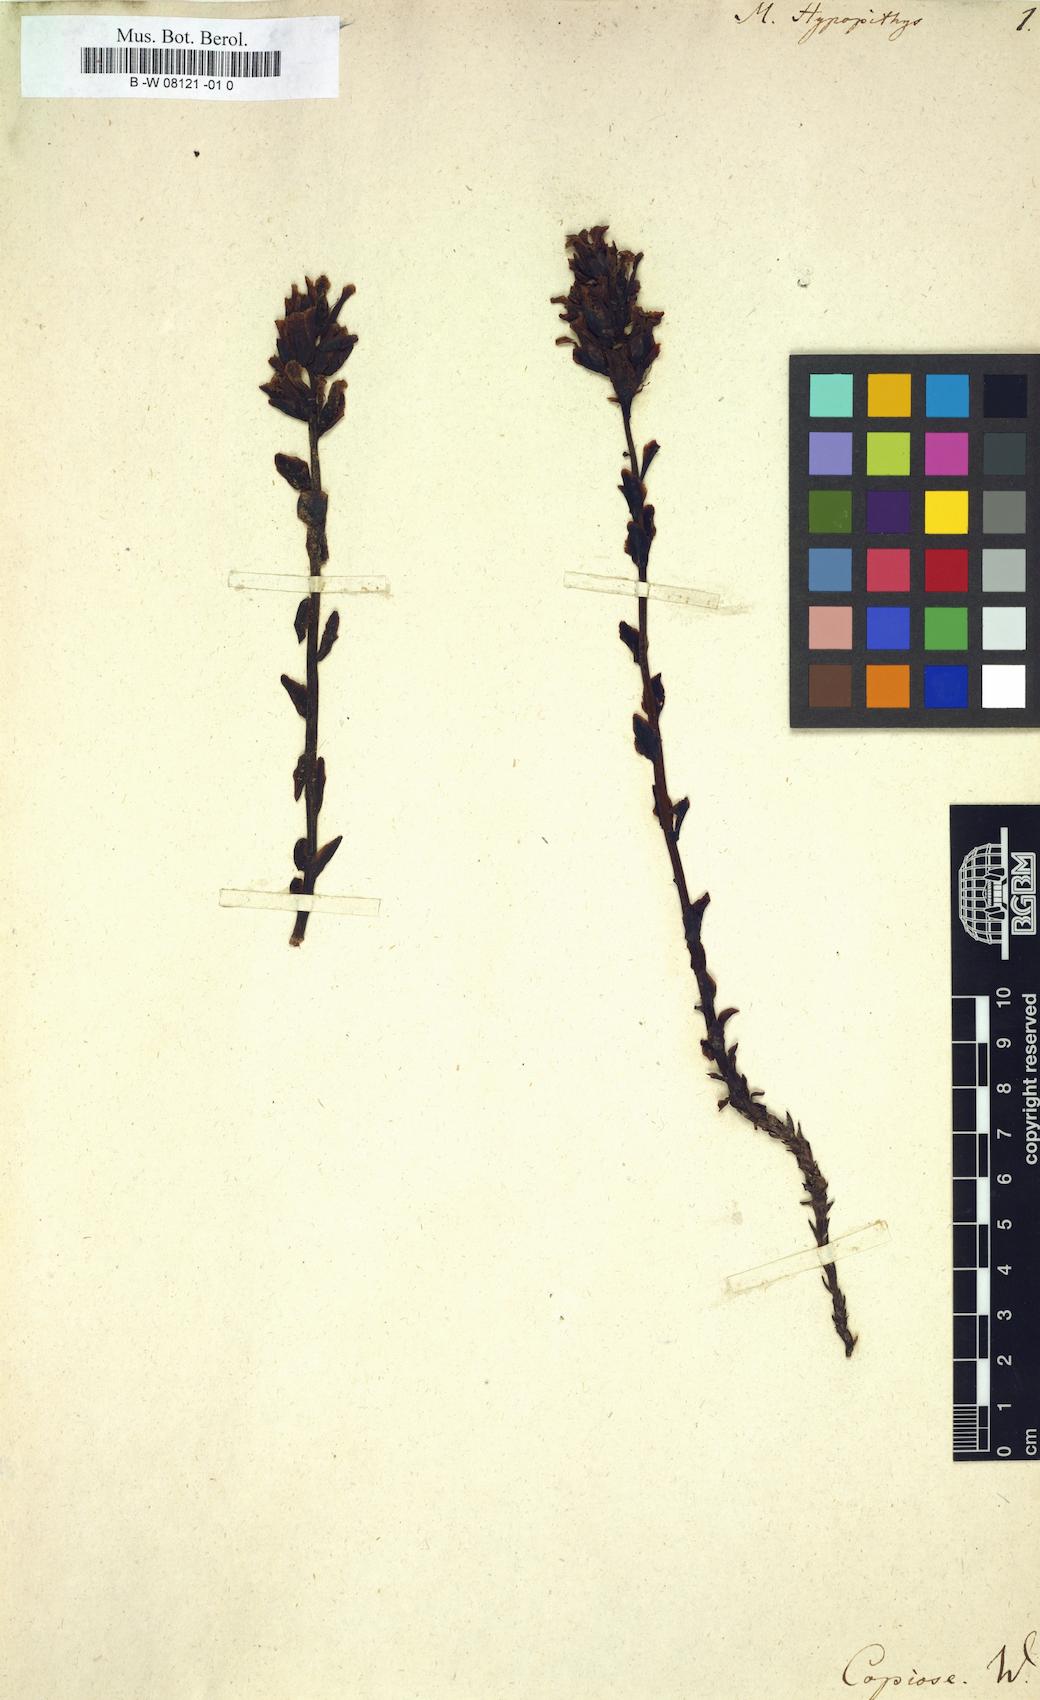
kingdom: Plantae
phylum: Tracheophyta
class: Magnoliopsida
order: Ericales
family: Ericaceae
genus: Hypopitys
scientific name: Hypopitys monotropa
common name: Yellow bird's-nest
